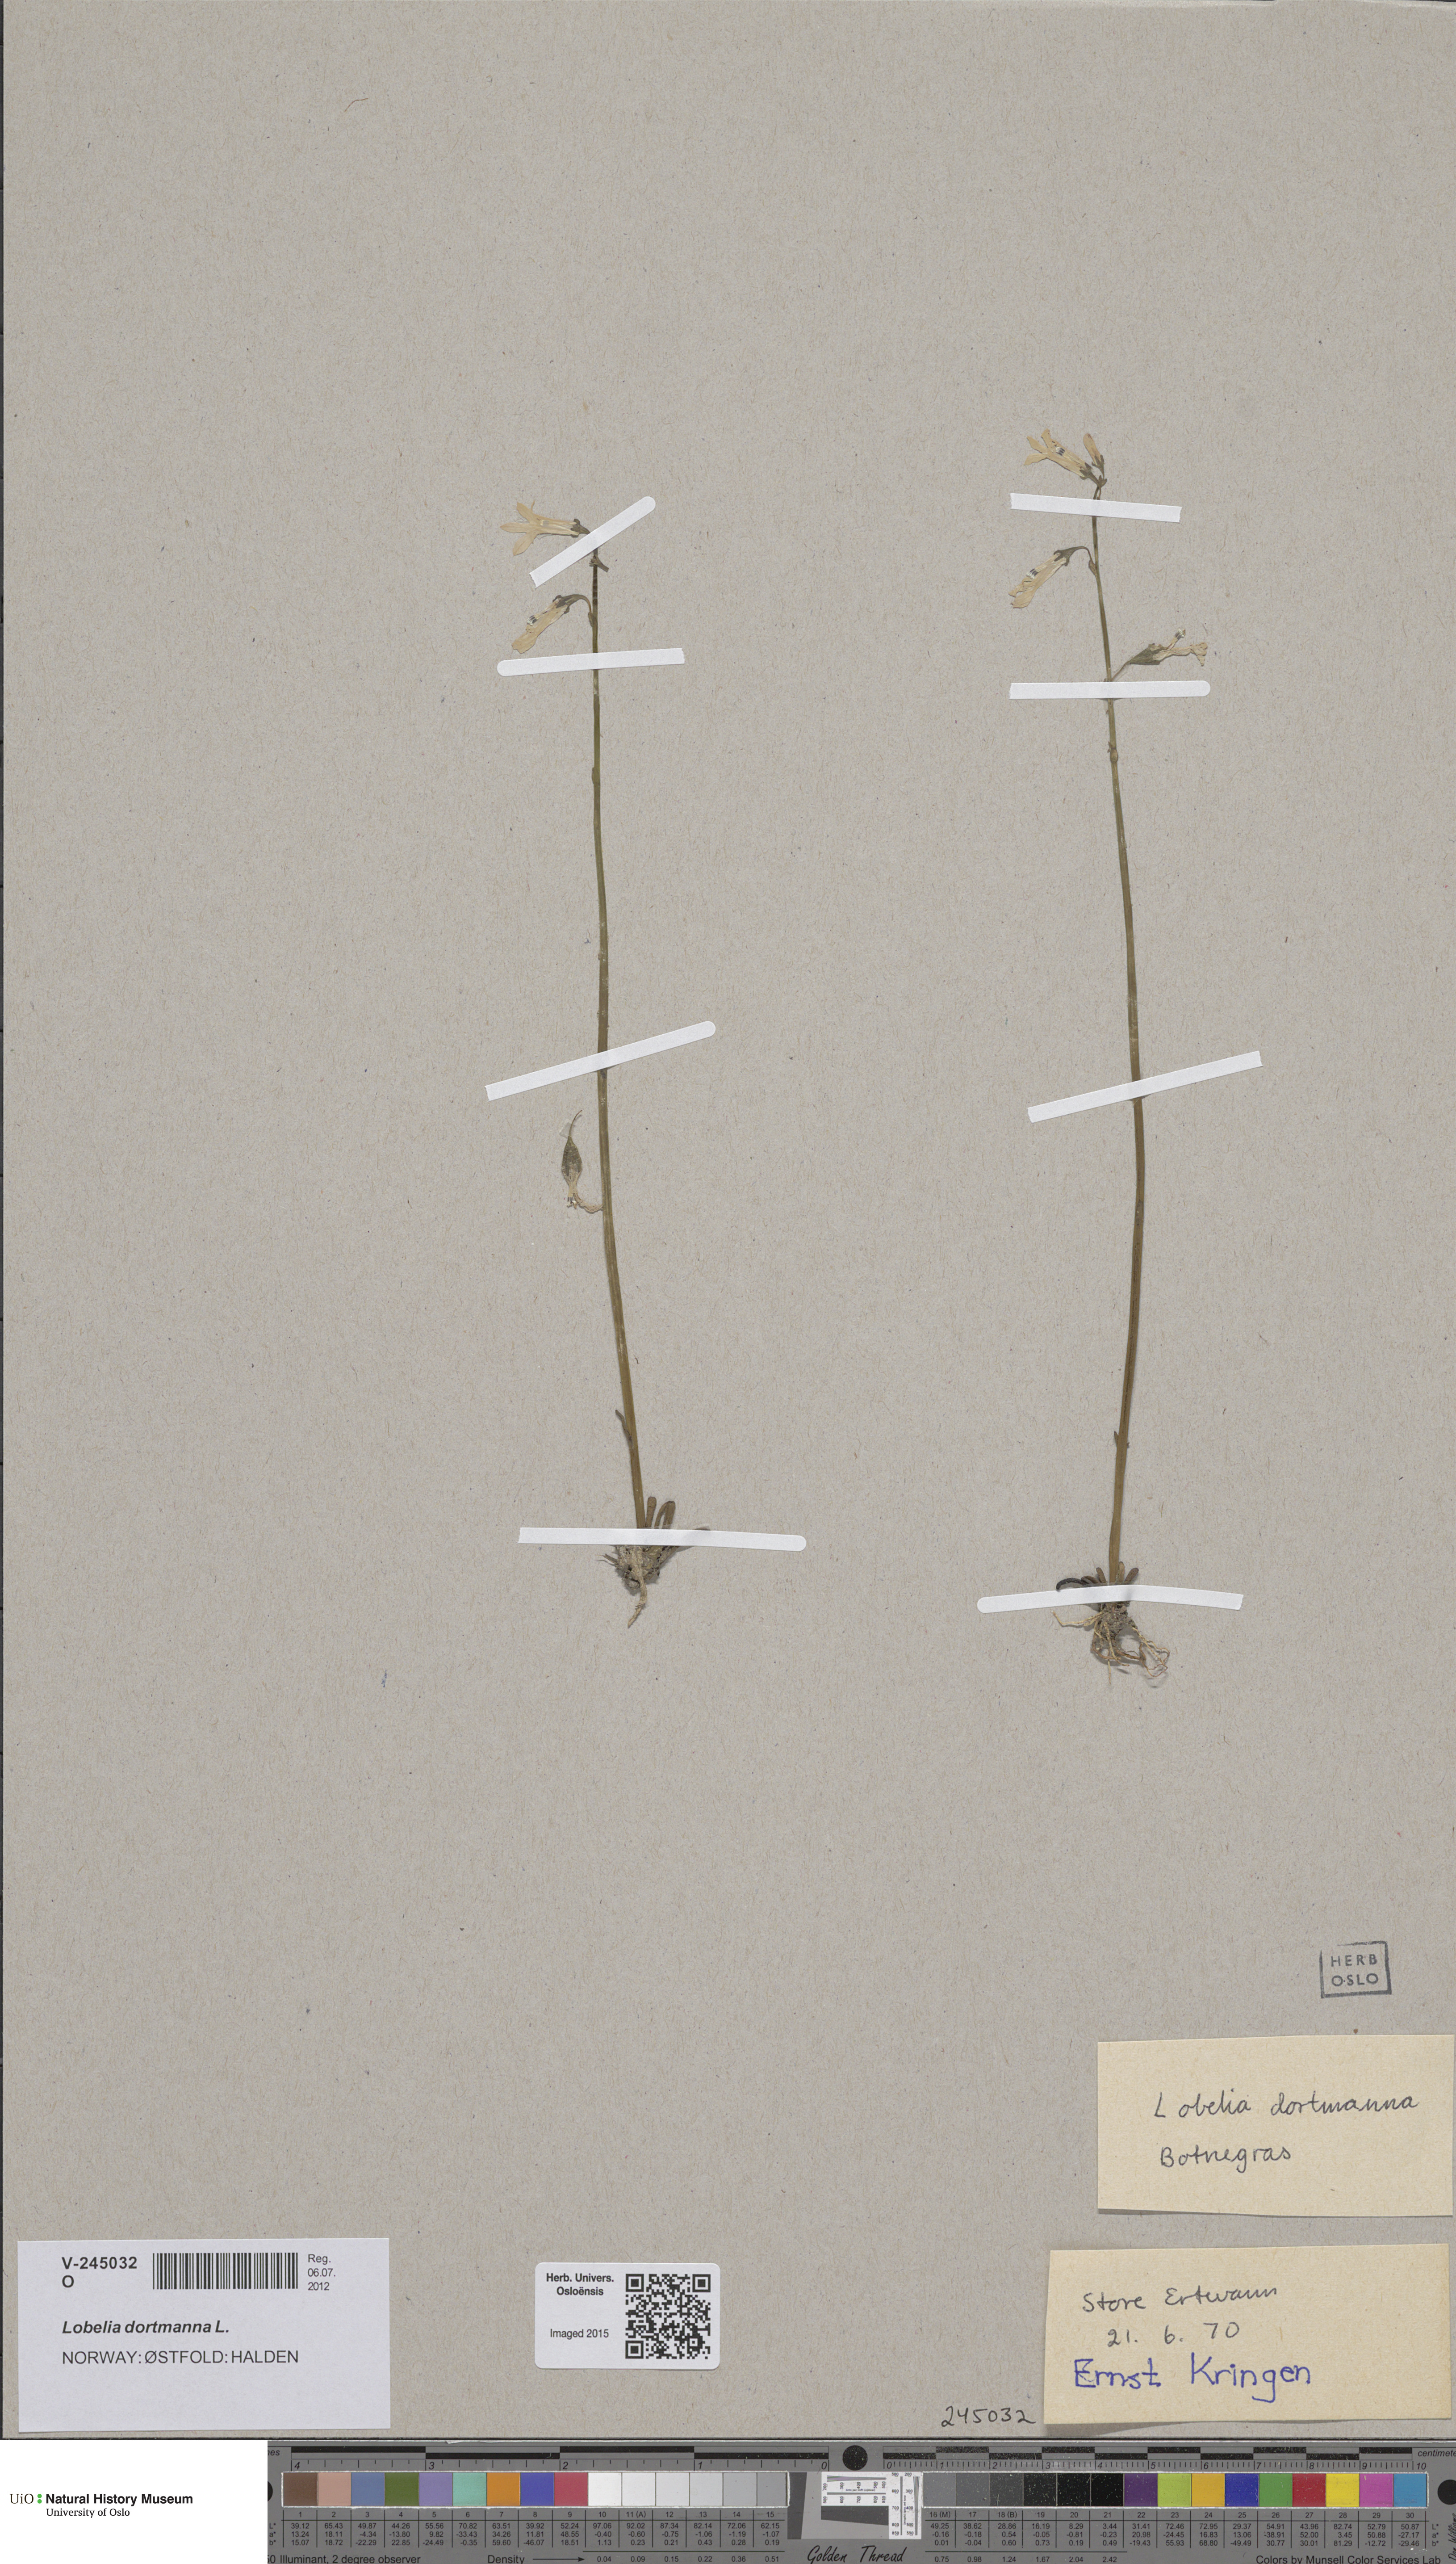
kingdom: Plantae
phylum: Tracheophyta
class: Magnoliopsida
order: Asterales
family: Campanulaceae
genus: Lobelia
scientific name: Lobelia dortmanna
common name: Water lobelia
